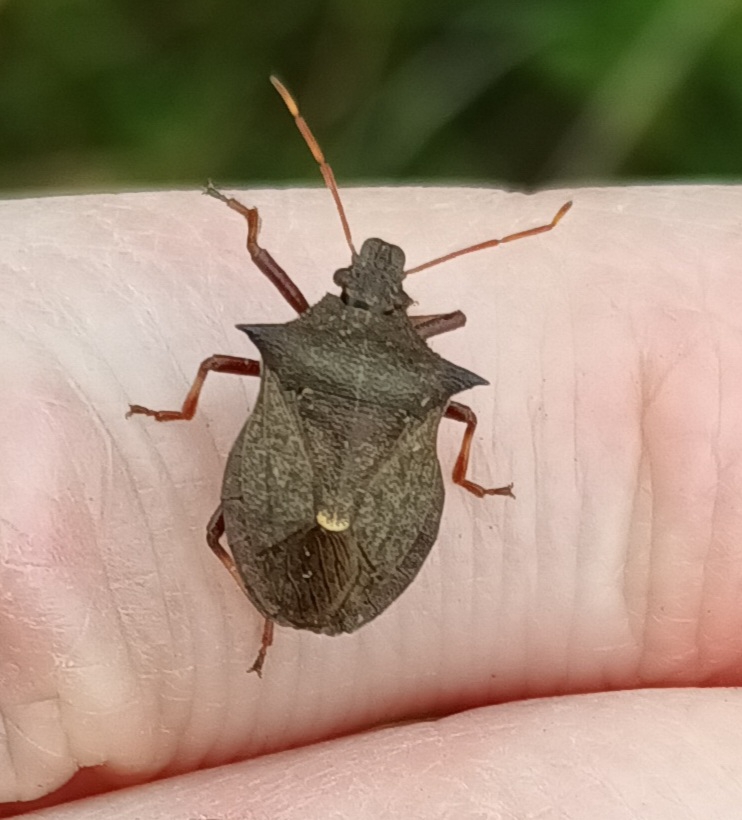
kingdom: Animalia
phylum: Arthropoda
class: Insecta
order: Hemiptera
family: Pentatomidae
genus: Picromerus
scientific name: Picromerus bidens
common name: Torntæge
